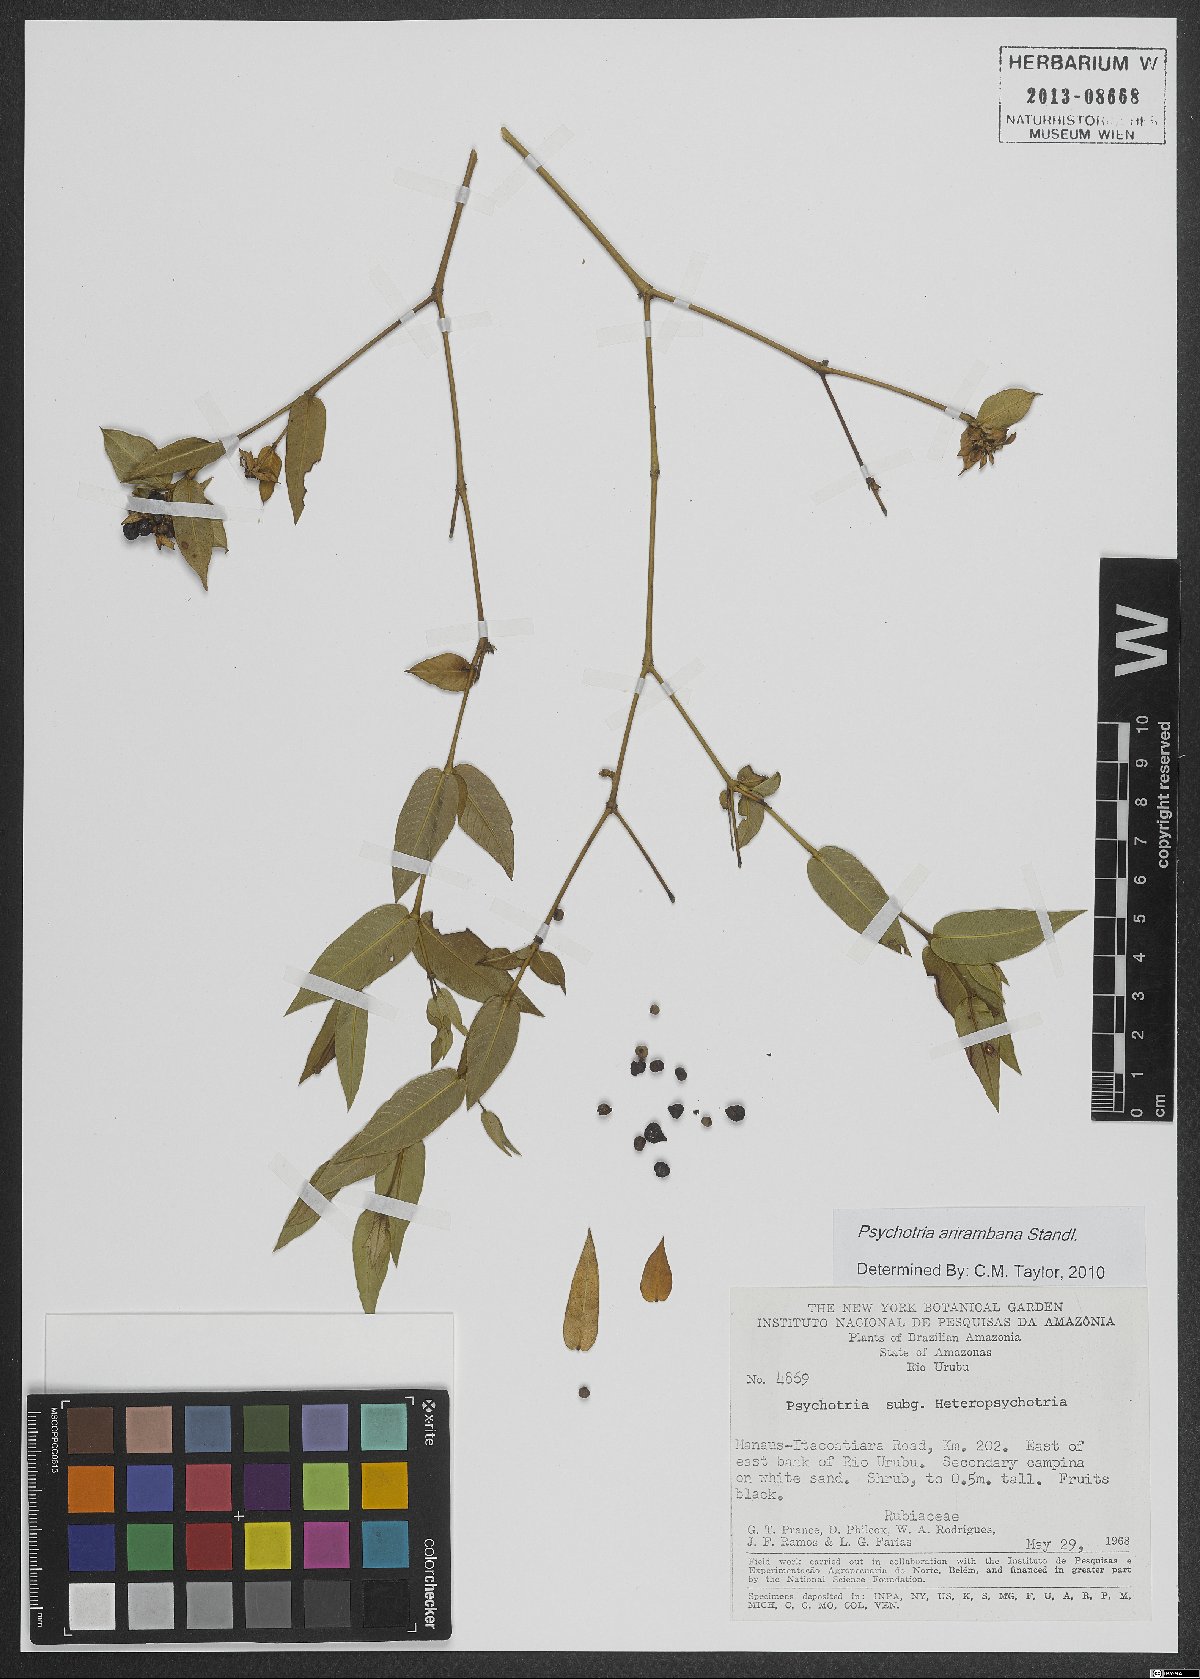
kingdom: Plantae
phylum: Tracheophyta
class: Magnoliopsida
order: Gentianales
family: Rubiaceae
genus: Psychotria
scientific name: Psychotria arirambana
